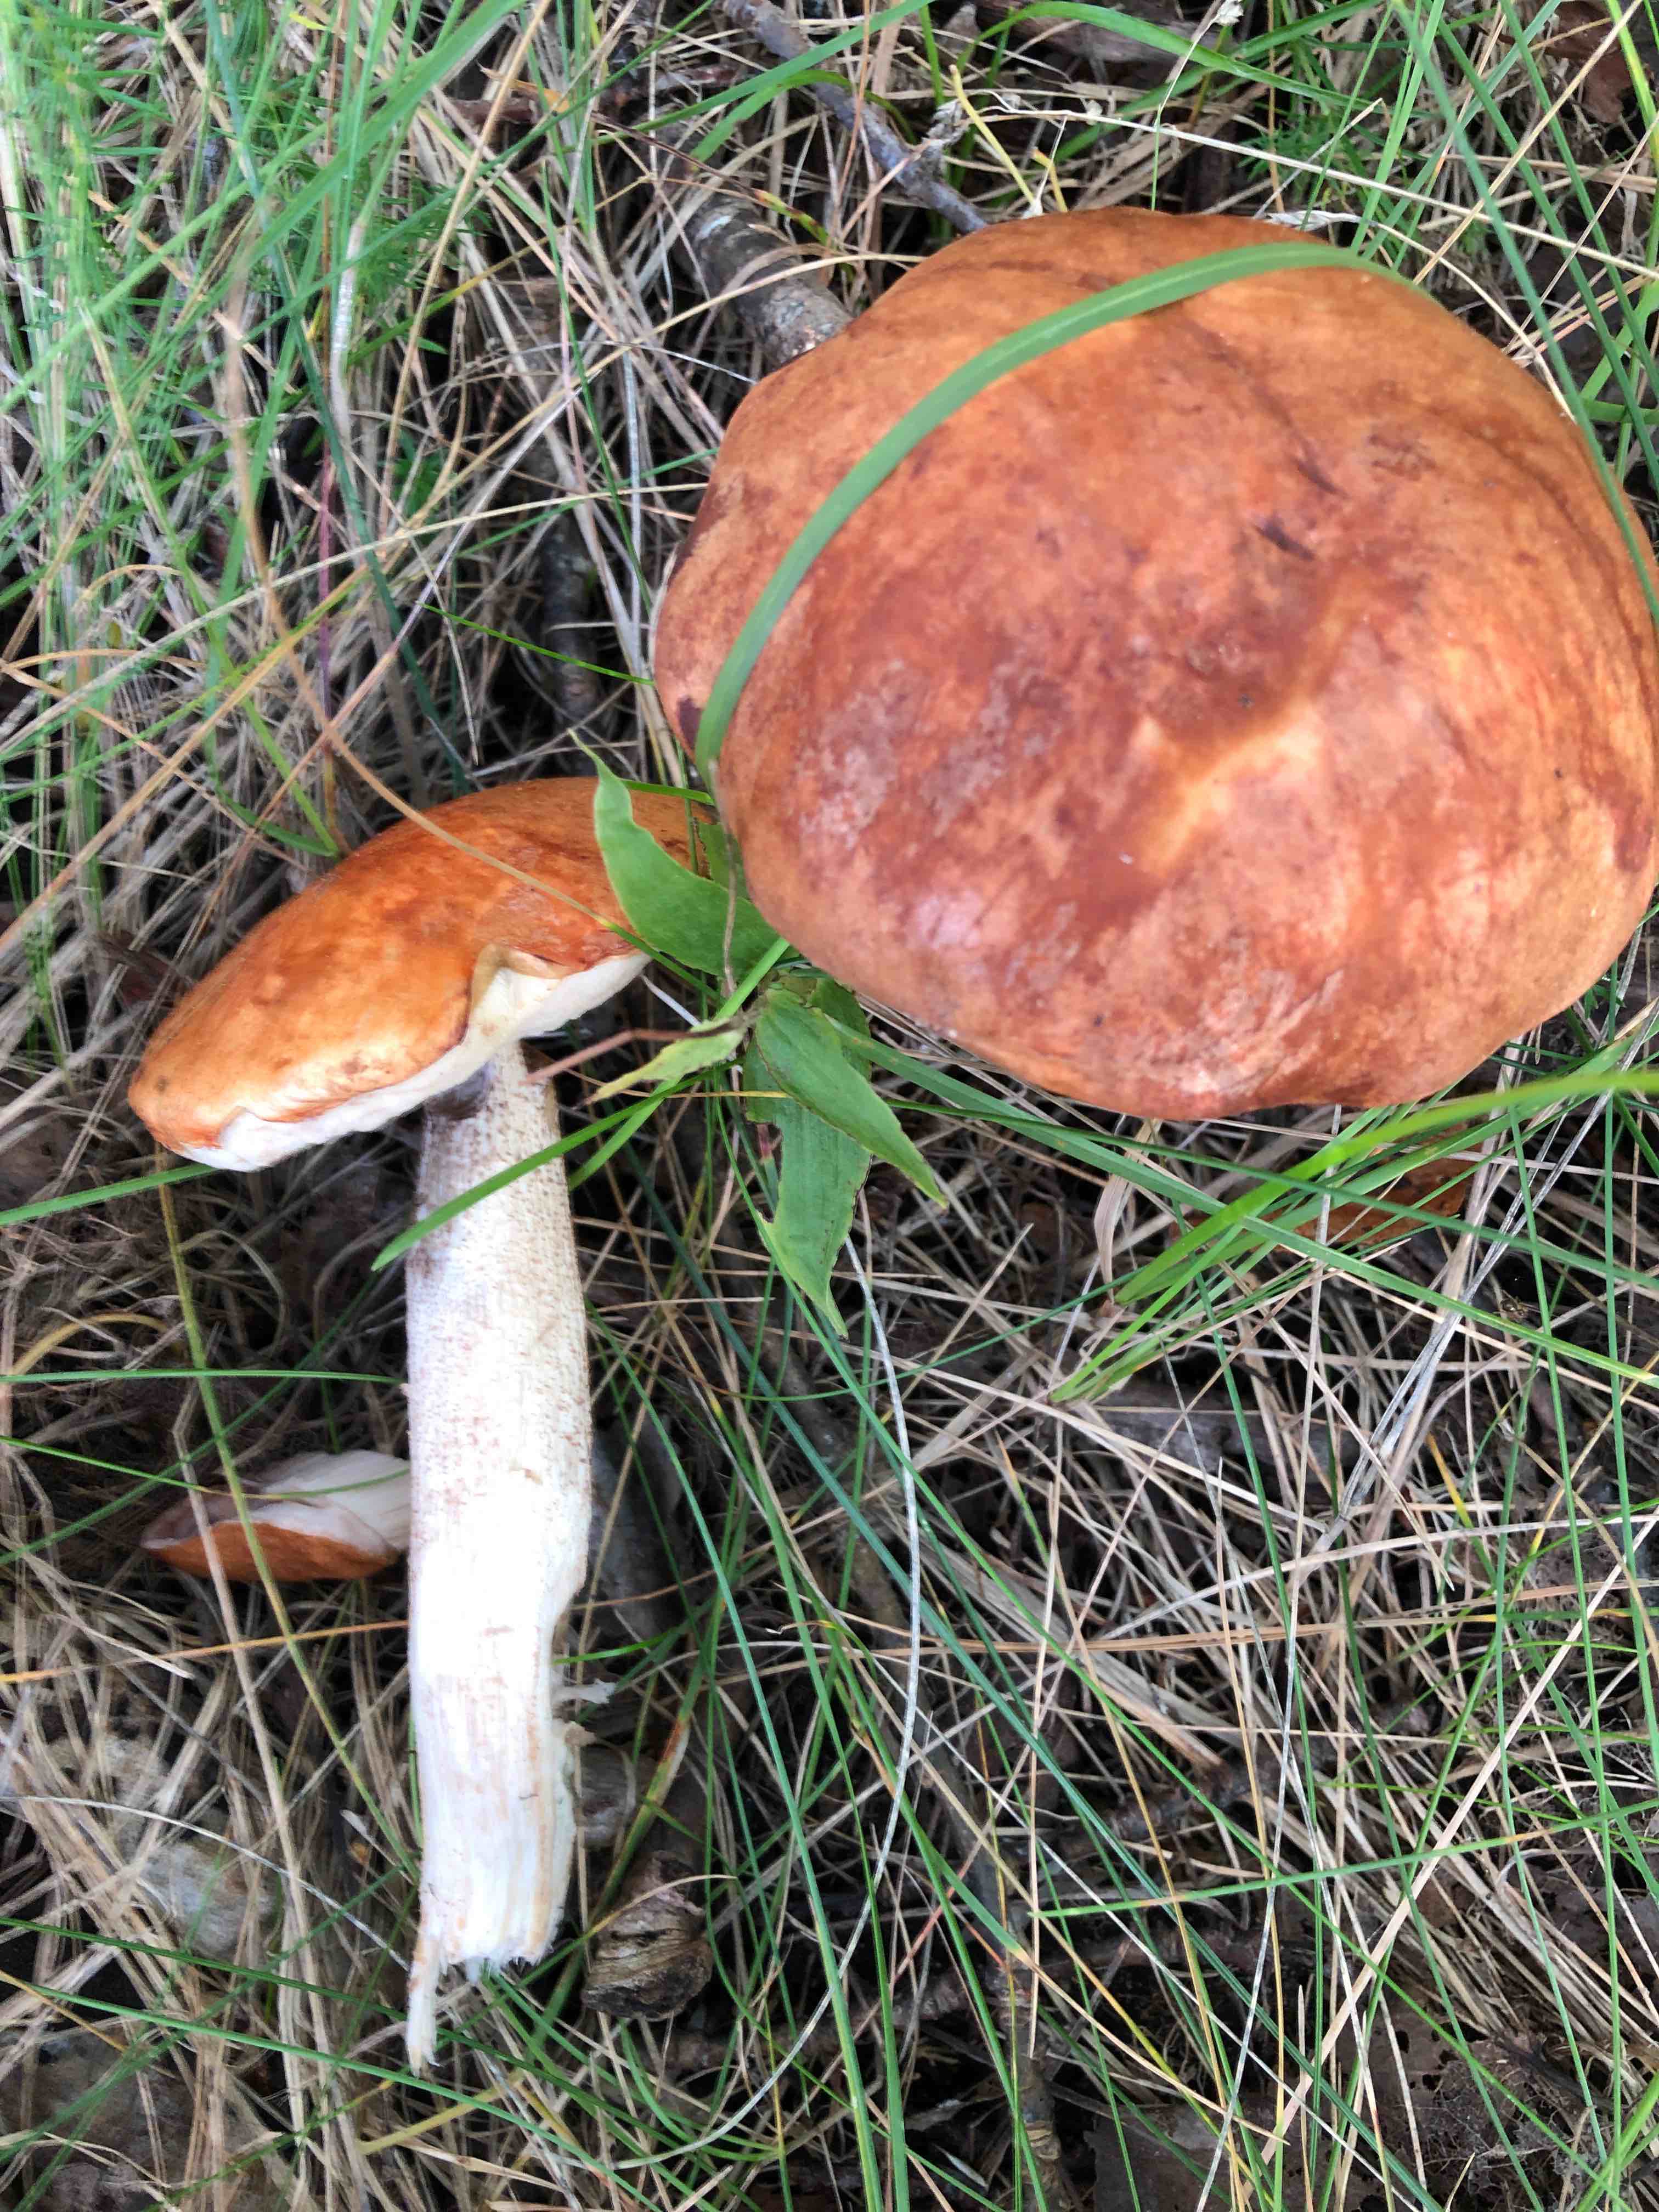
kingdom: Fungi
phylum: Basidiomycota
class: Agaricomycetes
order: Boletales
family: Boletaceae
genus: Leccinum
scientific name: Leccinum albostipitatum
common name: aspe-skælrørhat
